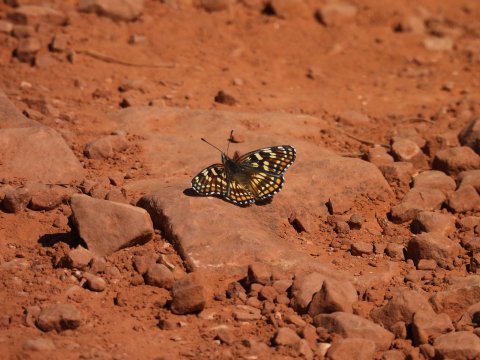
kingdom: Animalia
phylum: Arthropoda
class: Insecta
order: Lepidoptera
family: Nymphalidae
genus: Thessalia
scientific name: Thessalia leanira
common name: Fulvia Checkerspot
